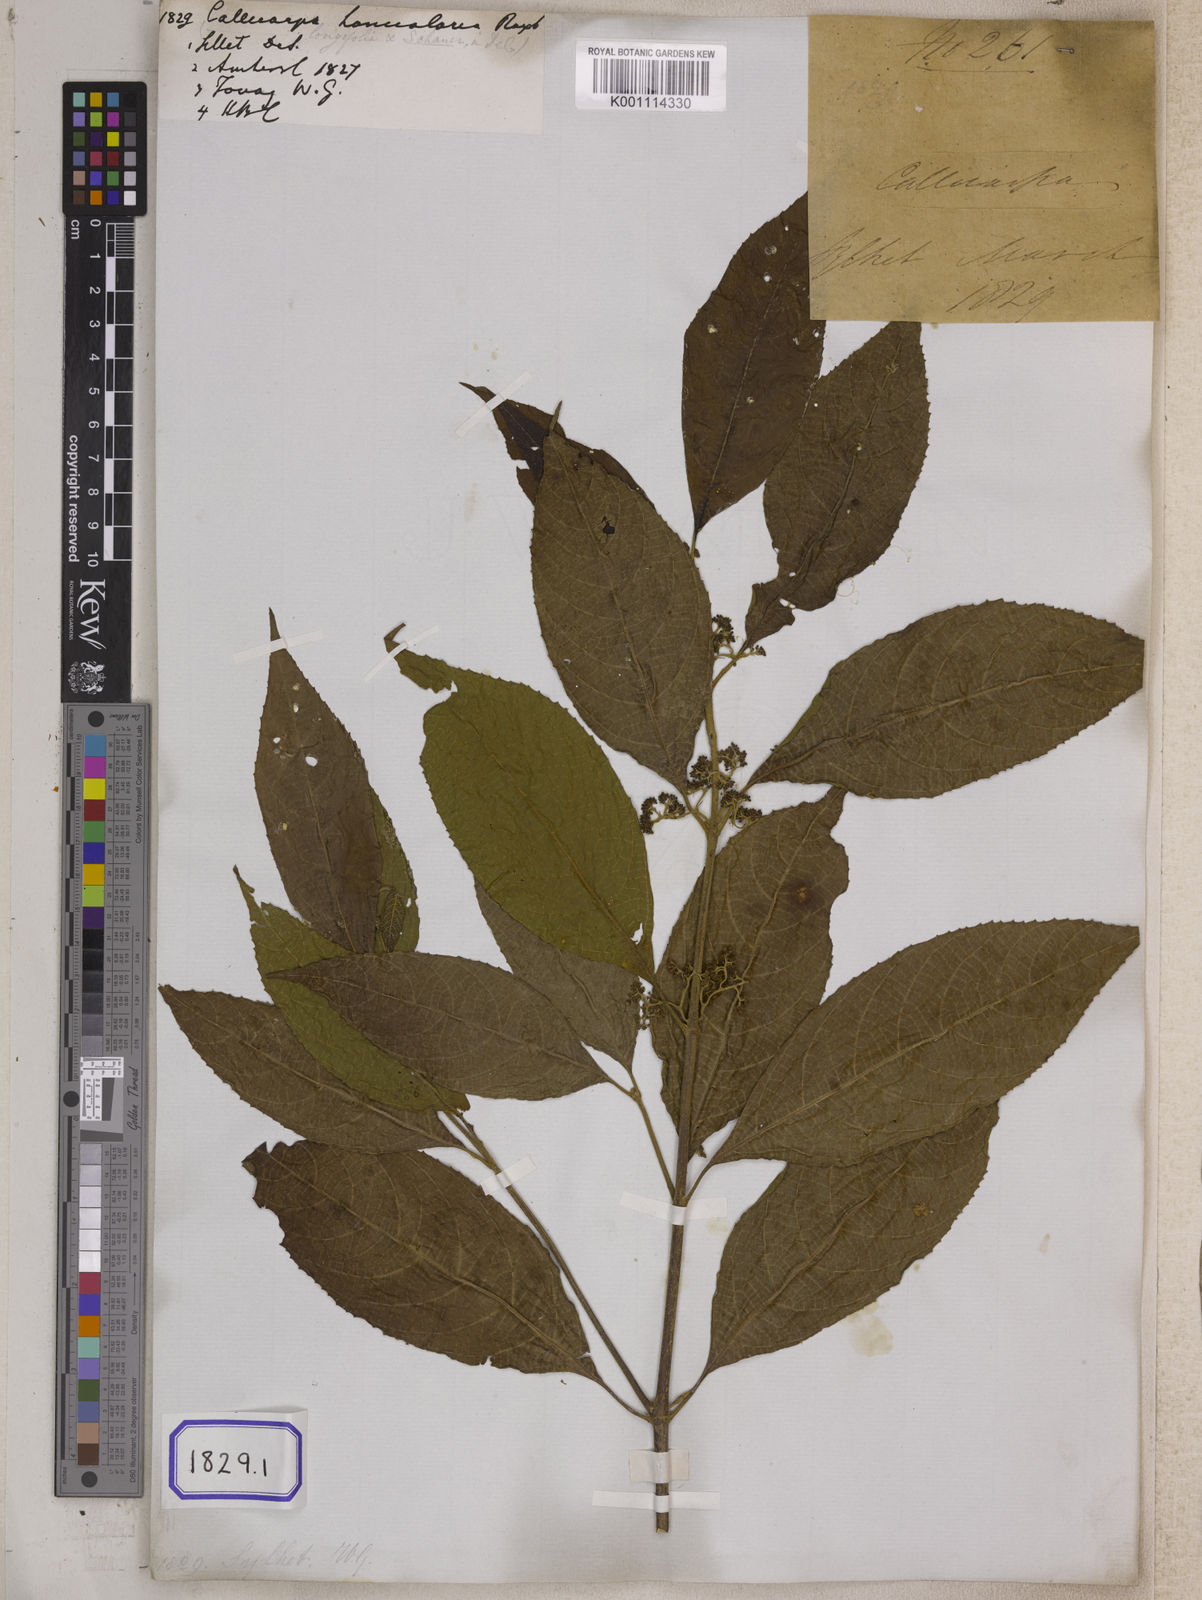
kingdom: Plantae
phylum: Tracheophyta
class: Magnoliopsida
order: Lamiales
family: Lamiaceae
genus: Callicarpa
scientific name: Callicarpa
